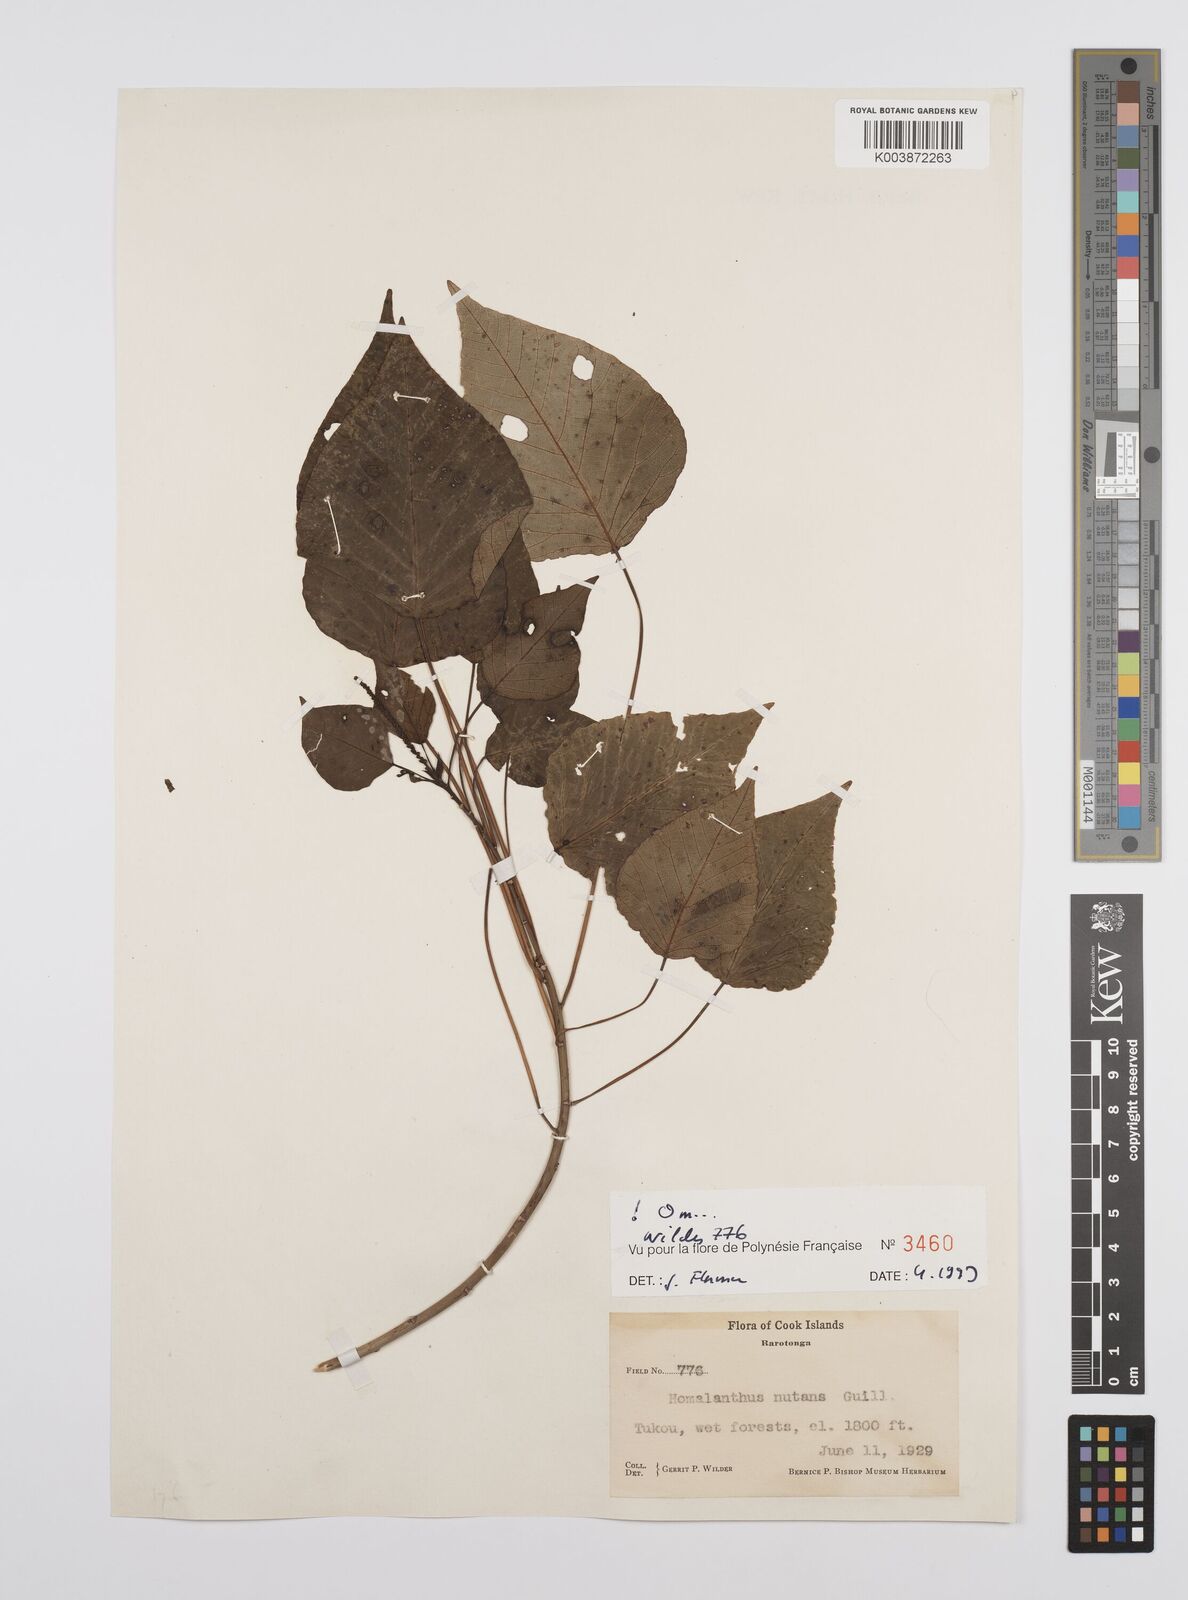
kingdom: Plantae
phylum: Tracheophyta
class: Magnoliopsida
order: Malpighiales
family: Euphorbiaceae
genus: Homalanthus
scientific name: Homalanthus nutans
